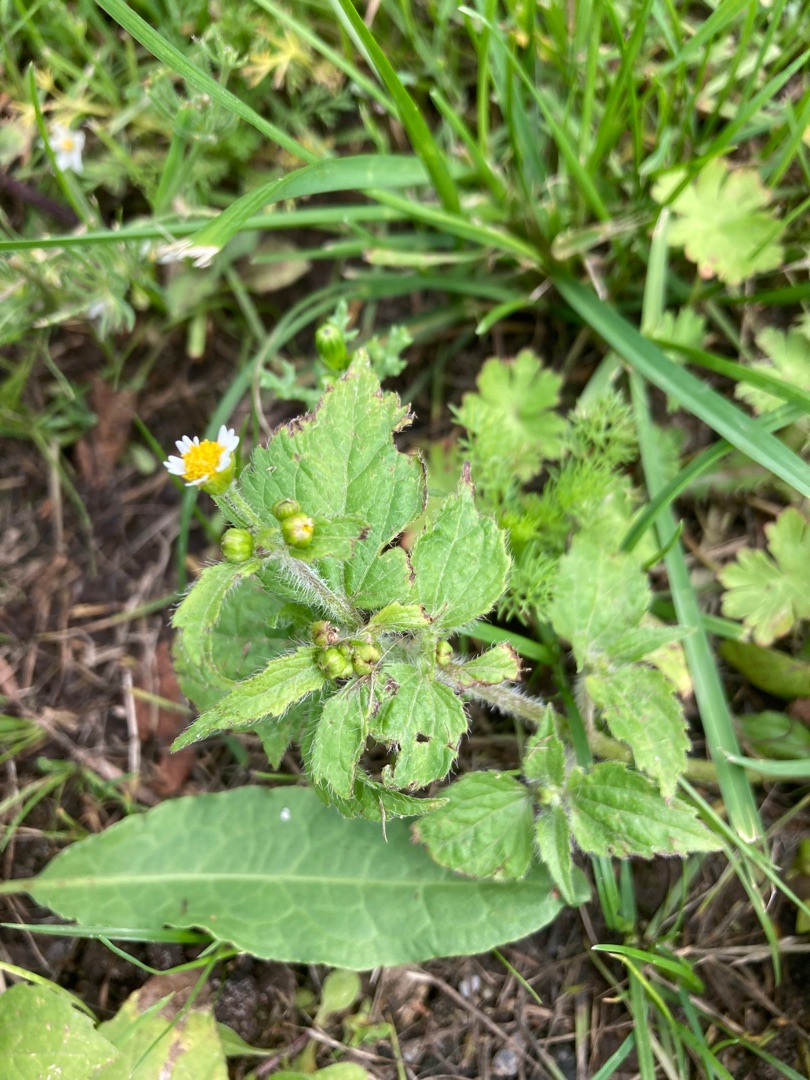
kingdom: Plantae
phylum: Tracheophyta
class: Magnoliopsida
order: Asterales
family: Asteraceae
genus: Galinsoga
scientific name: Galinsoga quadriradiata
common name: Kirtel-kortstråle
